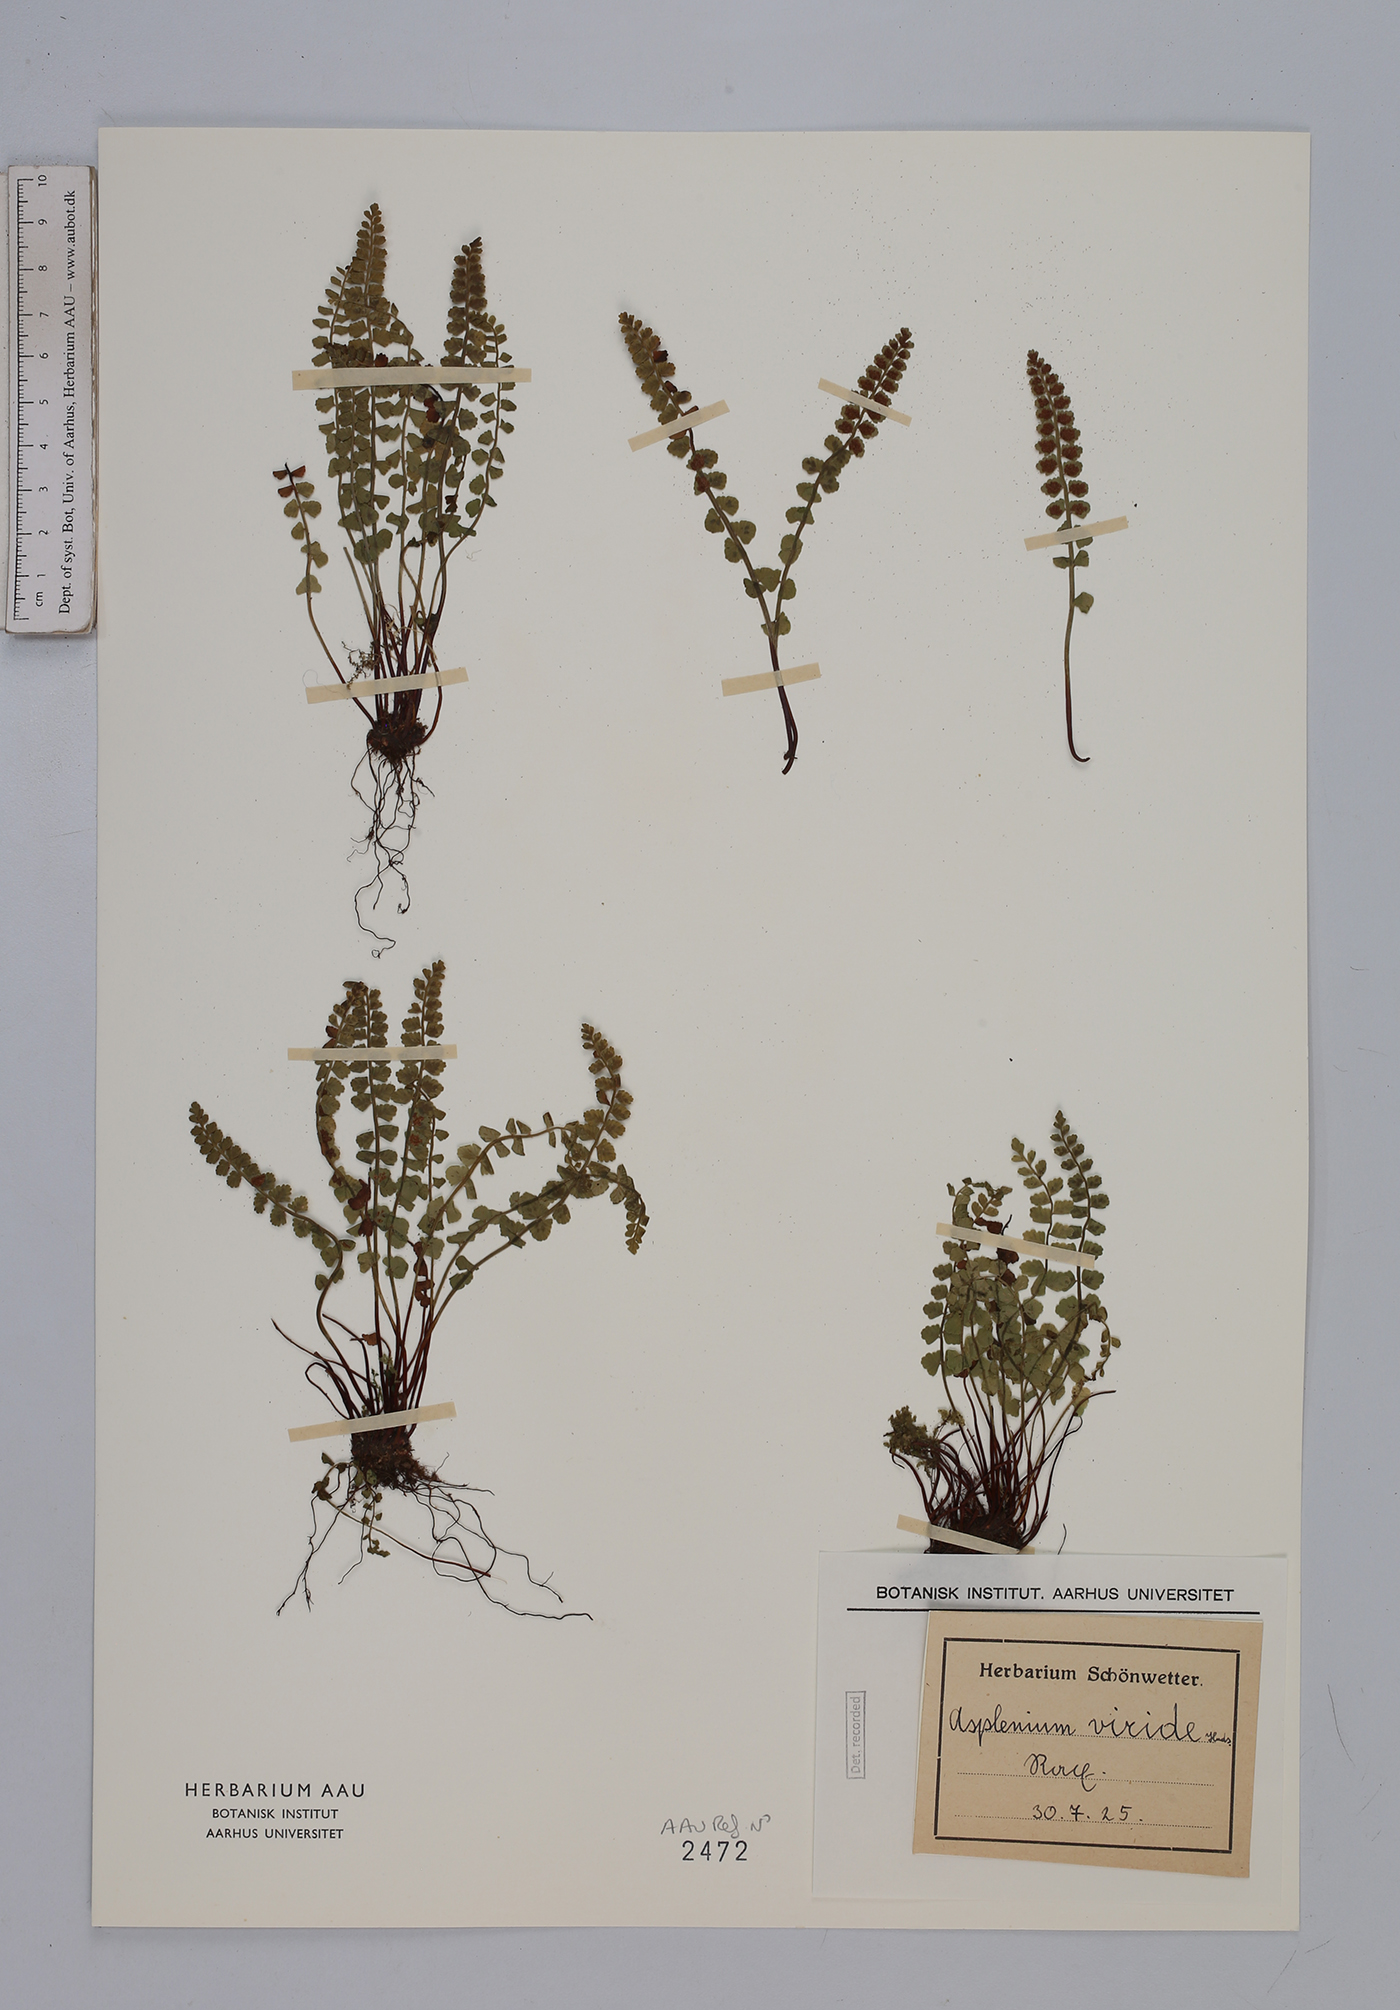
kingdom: Plantae
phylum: Tracheophyta
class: Polypodiopsida
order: Polypodiales
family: Aspleniaceae
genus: Asplenium
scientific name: Asplenium viride
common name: Green spleenwort
